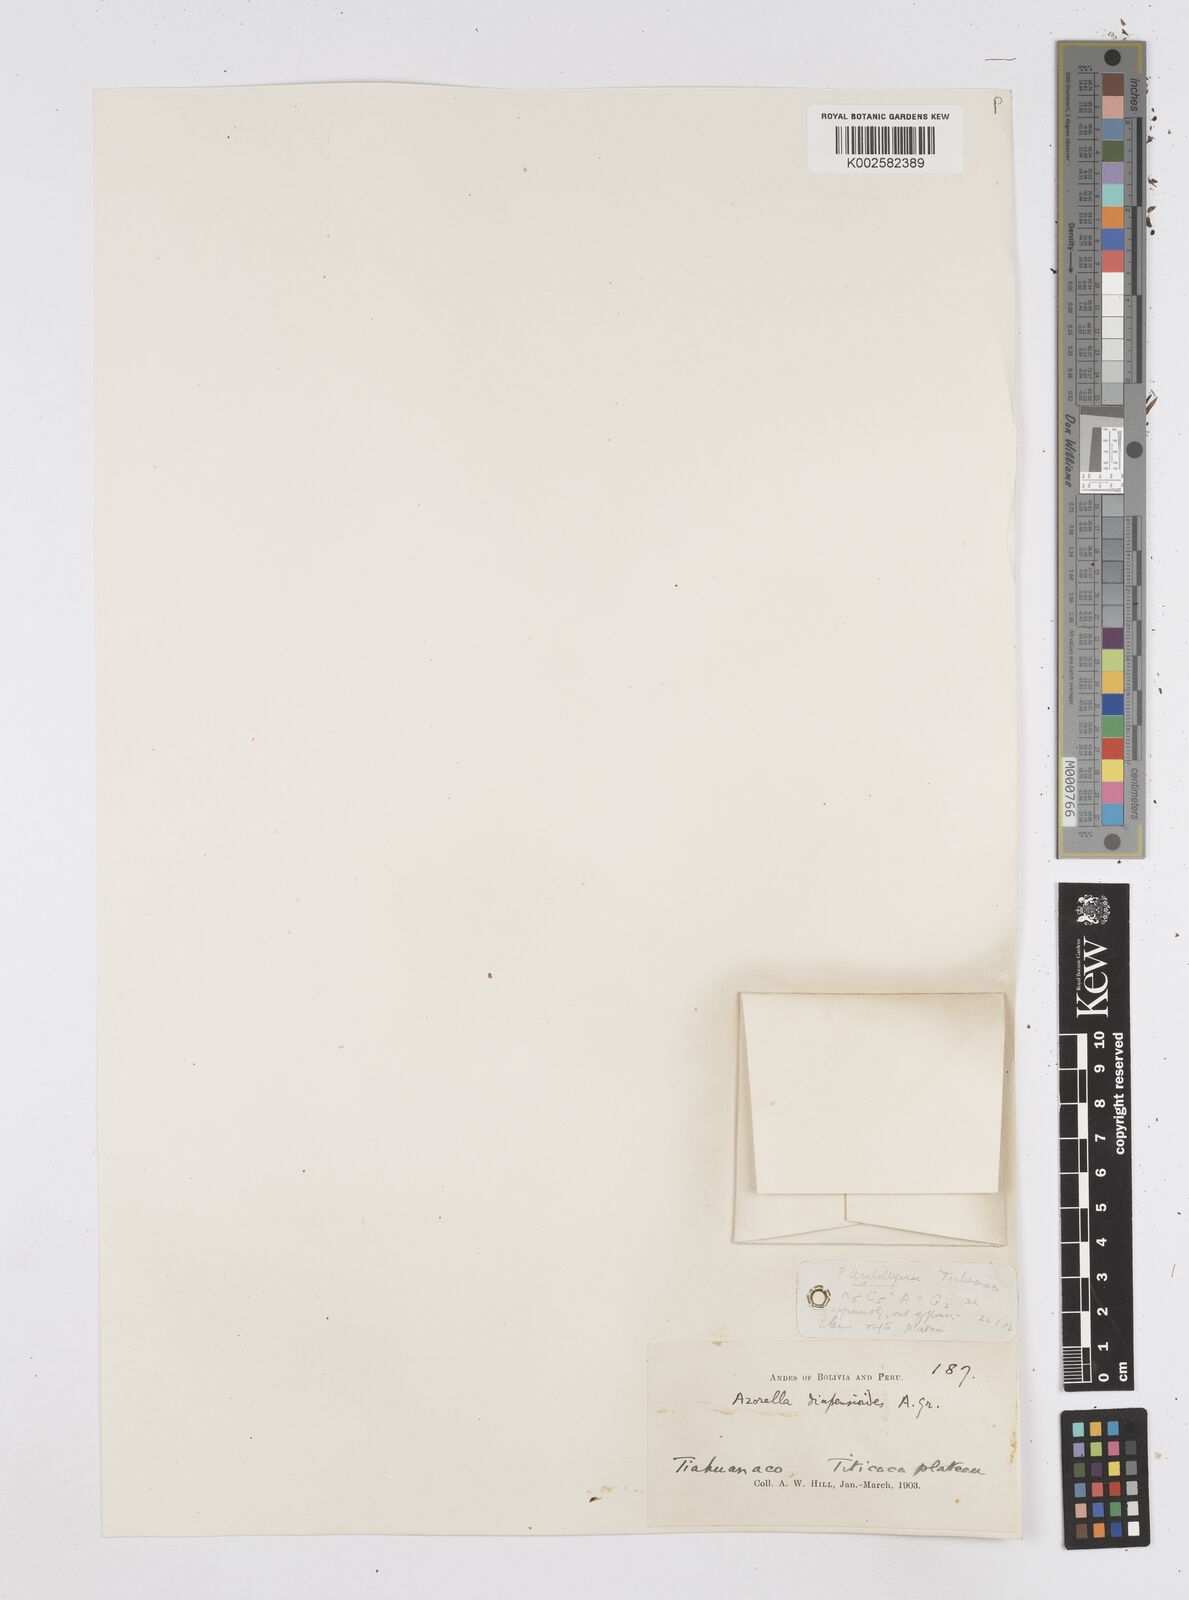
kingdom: Plantae
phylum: Tracheophyta
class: Magnoliopsida
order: Apiales
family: Apiaceae
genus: Azorella
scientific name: Azorella diapensioides
